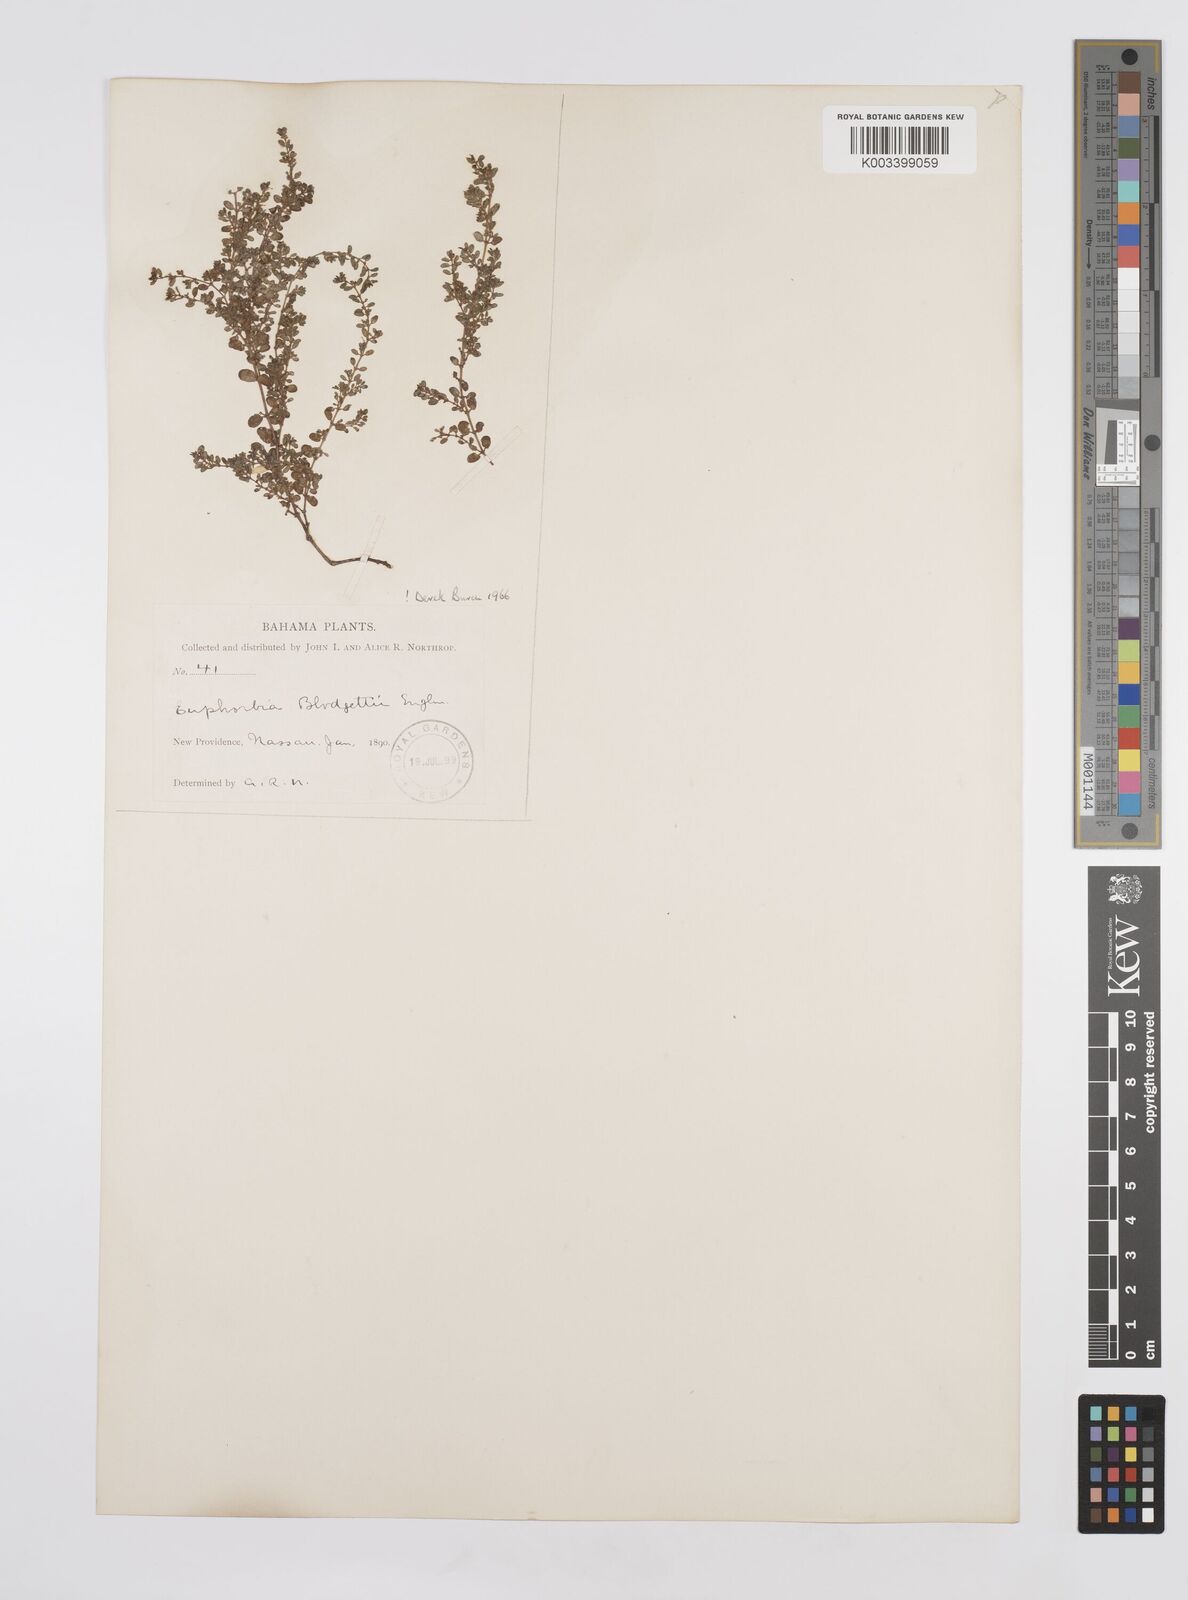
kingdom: Plantae
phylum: Tracheophyta
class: Magnoliopsida
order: Malpighiales
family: Euphorbiaceae
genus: Euphorbia
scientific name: Euphorbia blodgettii
